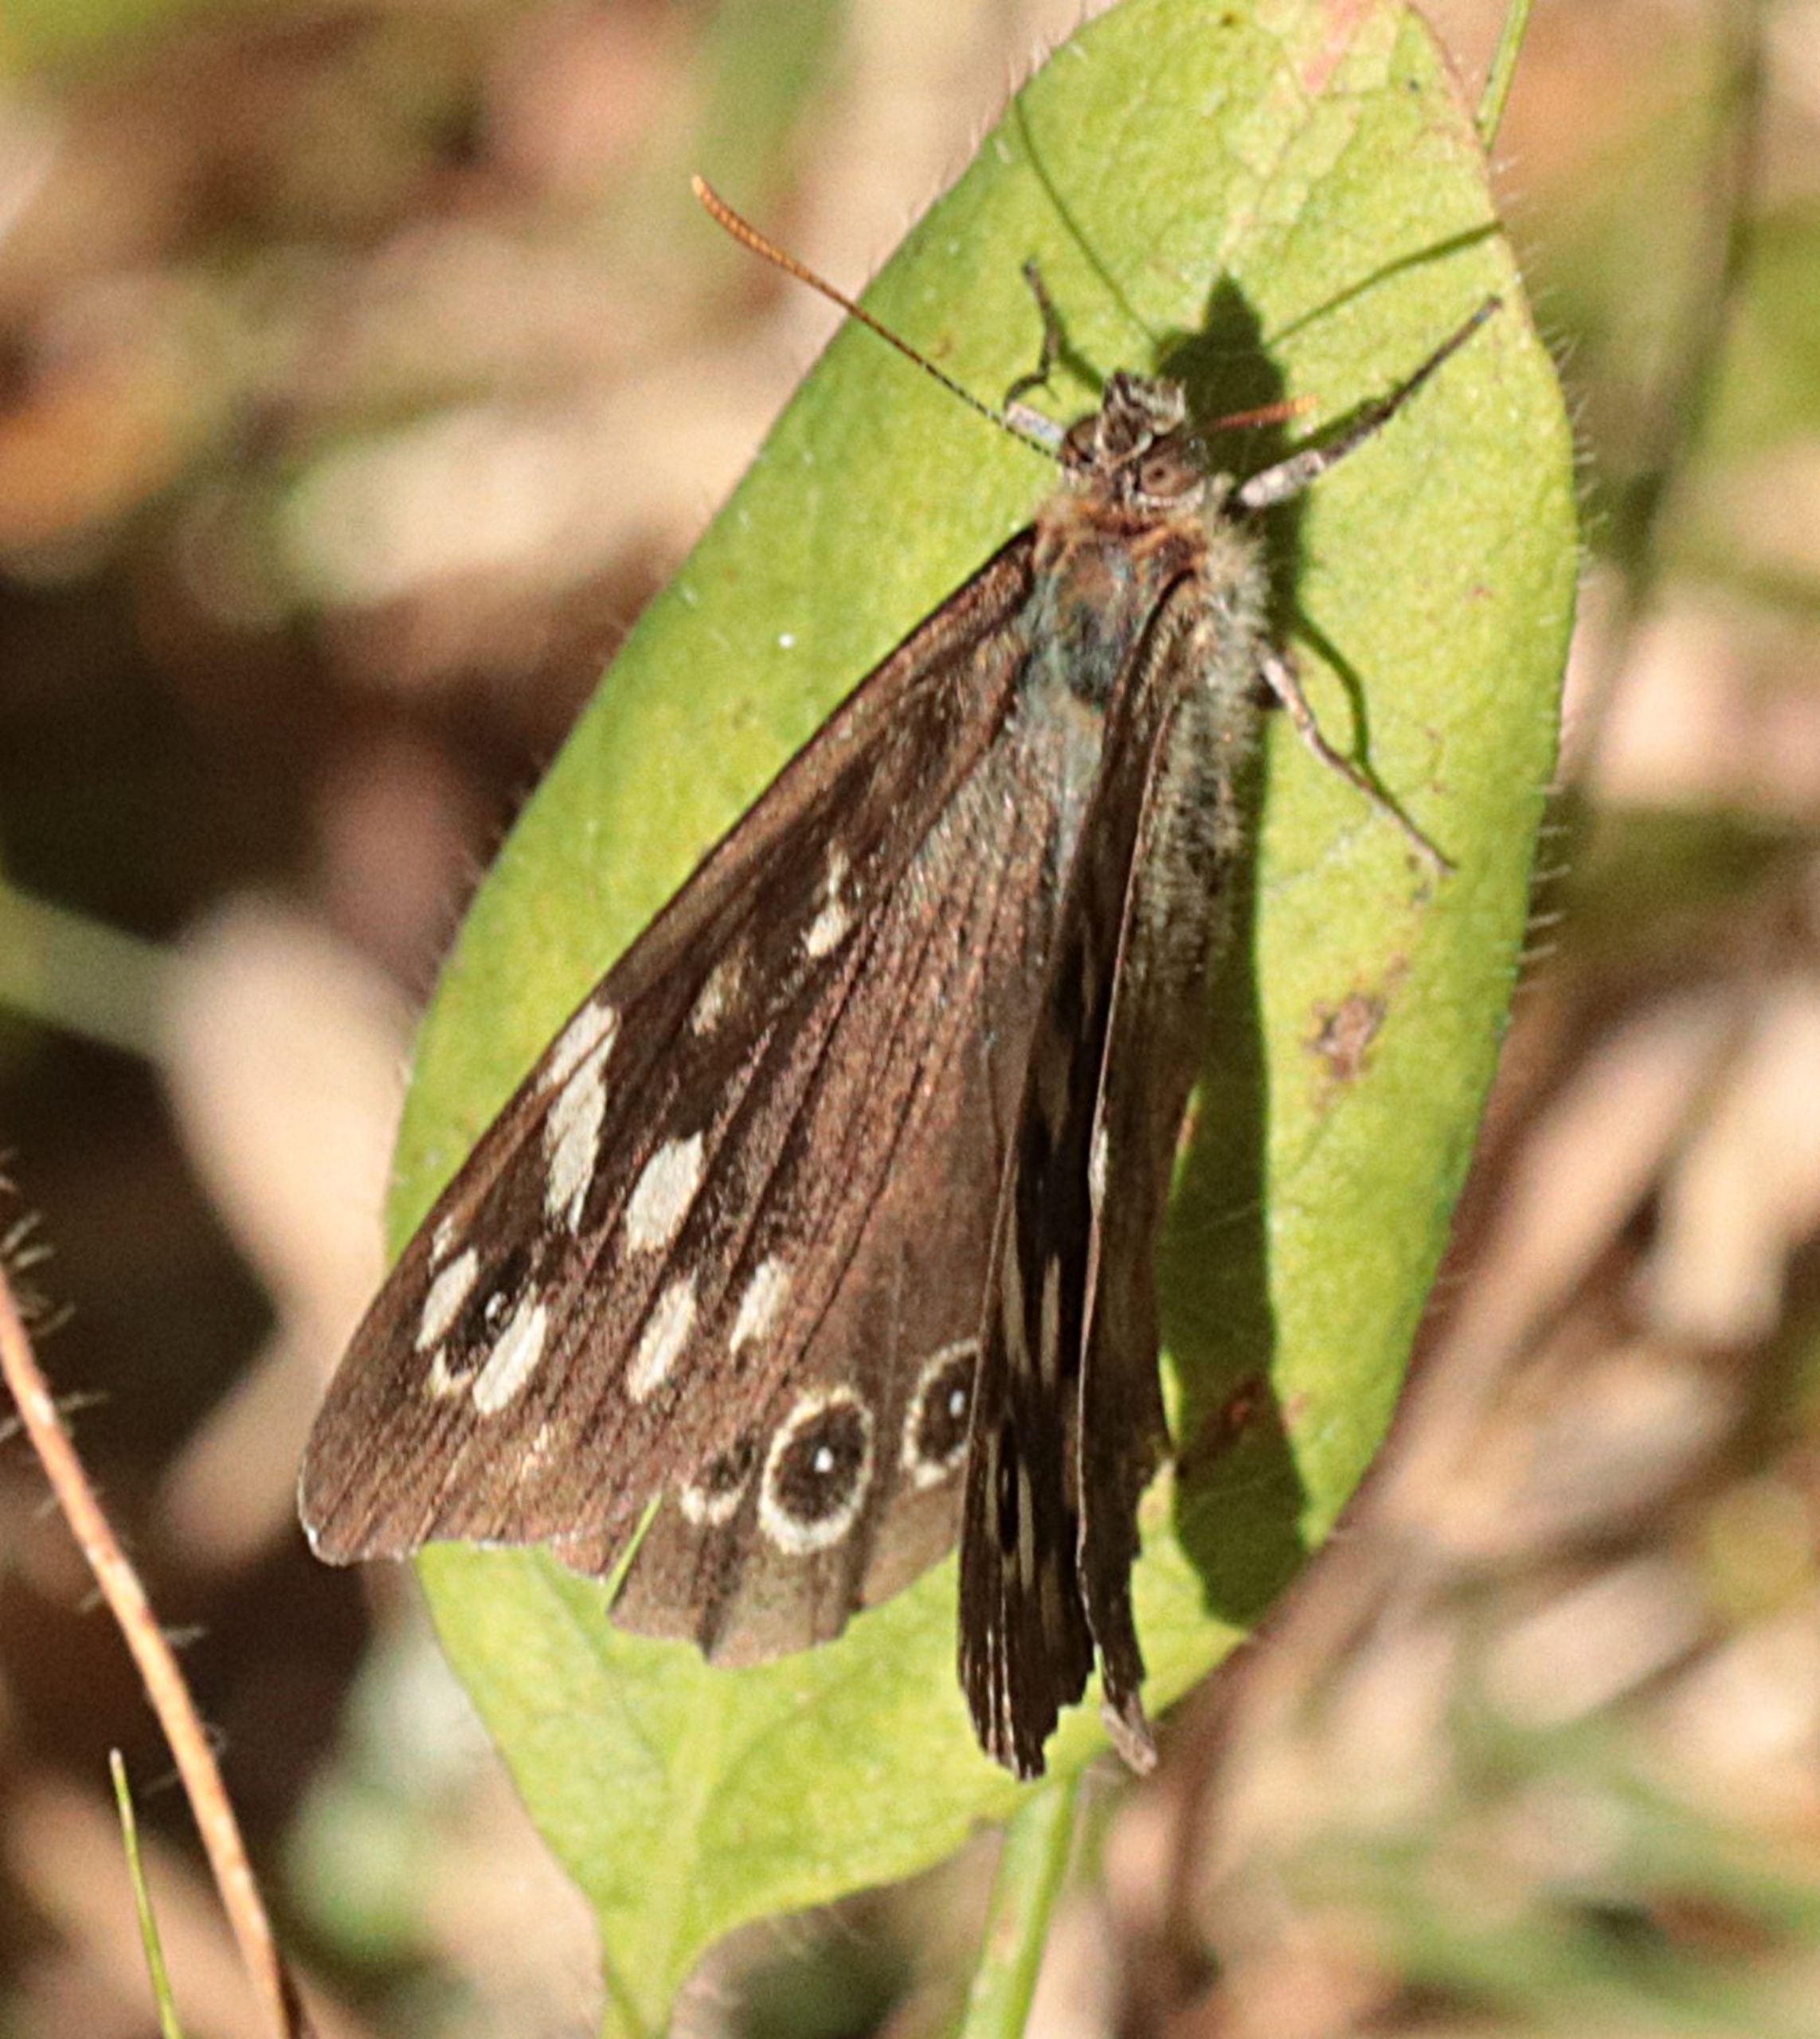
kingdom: Animalia
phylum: Arthropoda
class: Insecta
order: Lepidoptera
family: Nymphalidae
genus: Pararge
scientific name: Pararge aegeria
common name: Skovrandøje
